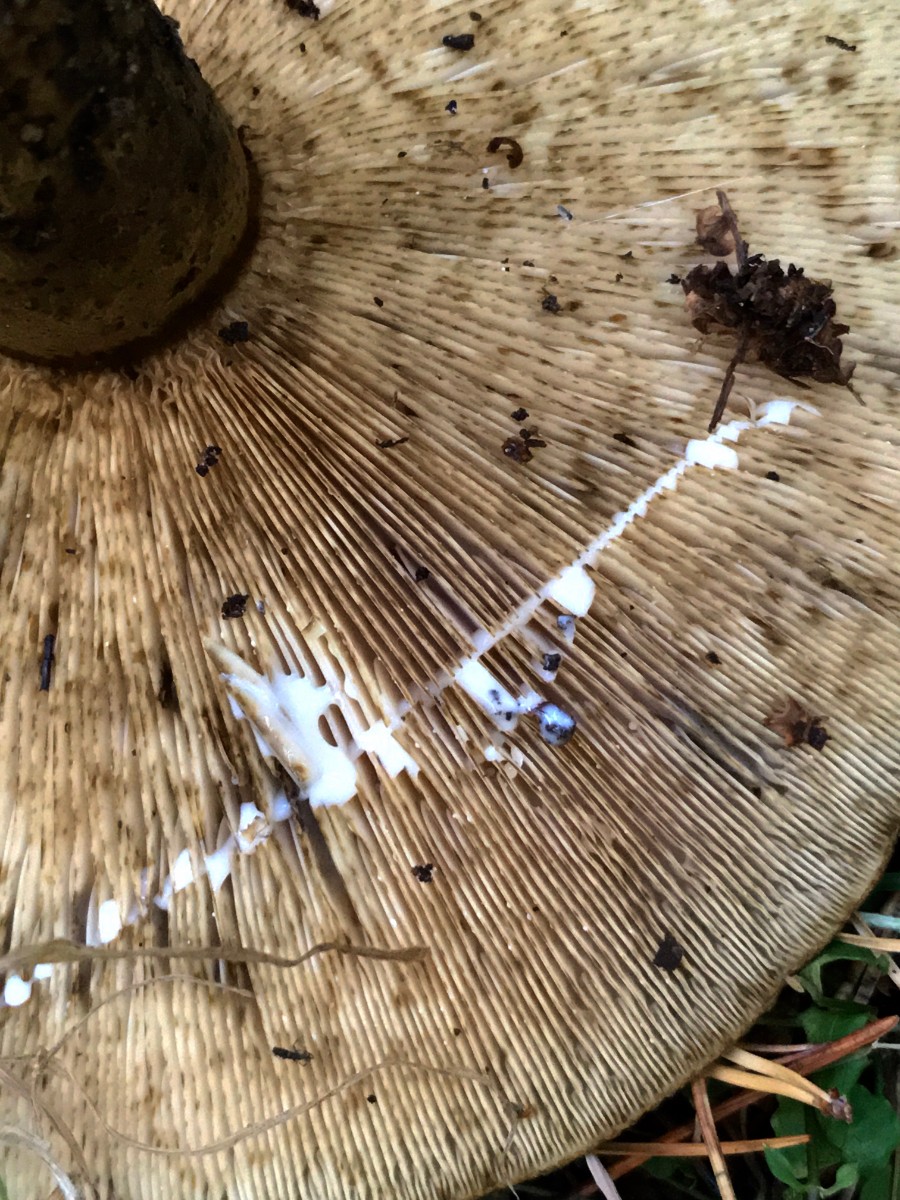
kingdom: Fungi
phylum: Basidiomycota
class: Agaricomycetes
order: Russulales
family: Russulaceae
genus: Lactarius
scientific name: Lactarius necator
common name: manddraber-mælkehat
